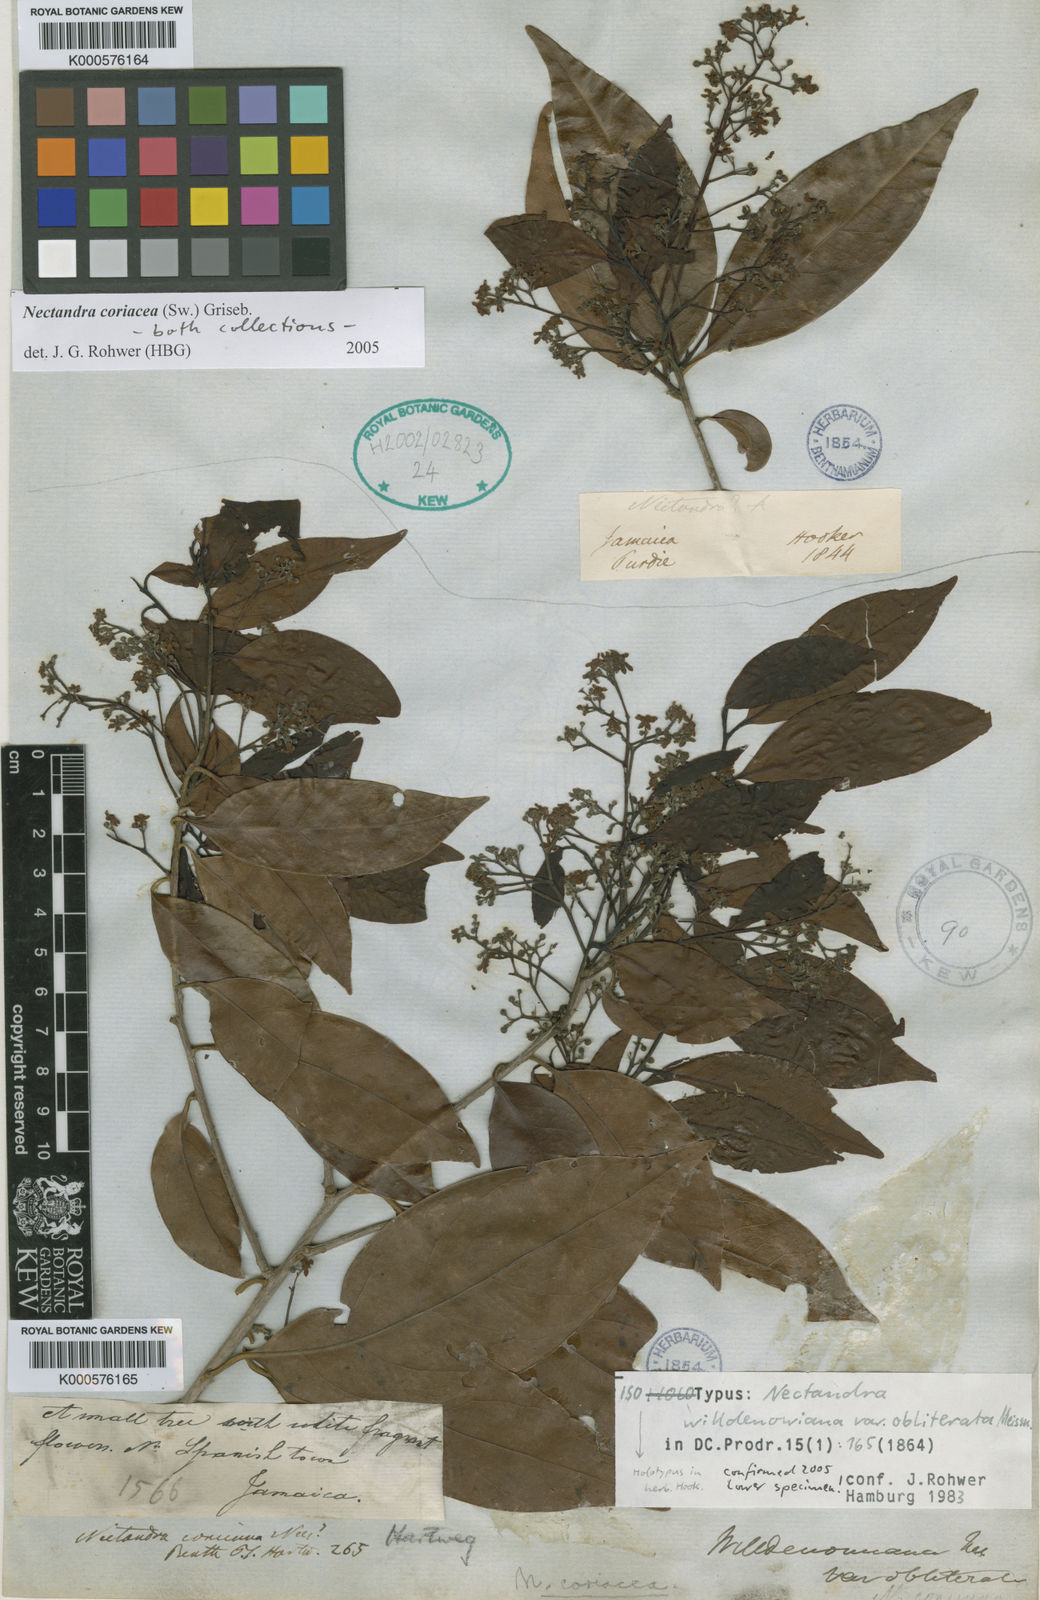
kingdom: Plantae
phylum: Tracheophyta
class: Magnoliopsida
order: Laurales
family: Lauraceae
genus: Damburneya
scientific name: Damburneya coriacea
